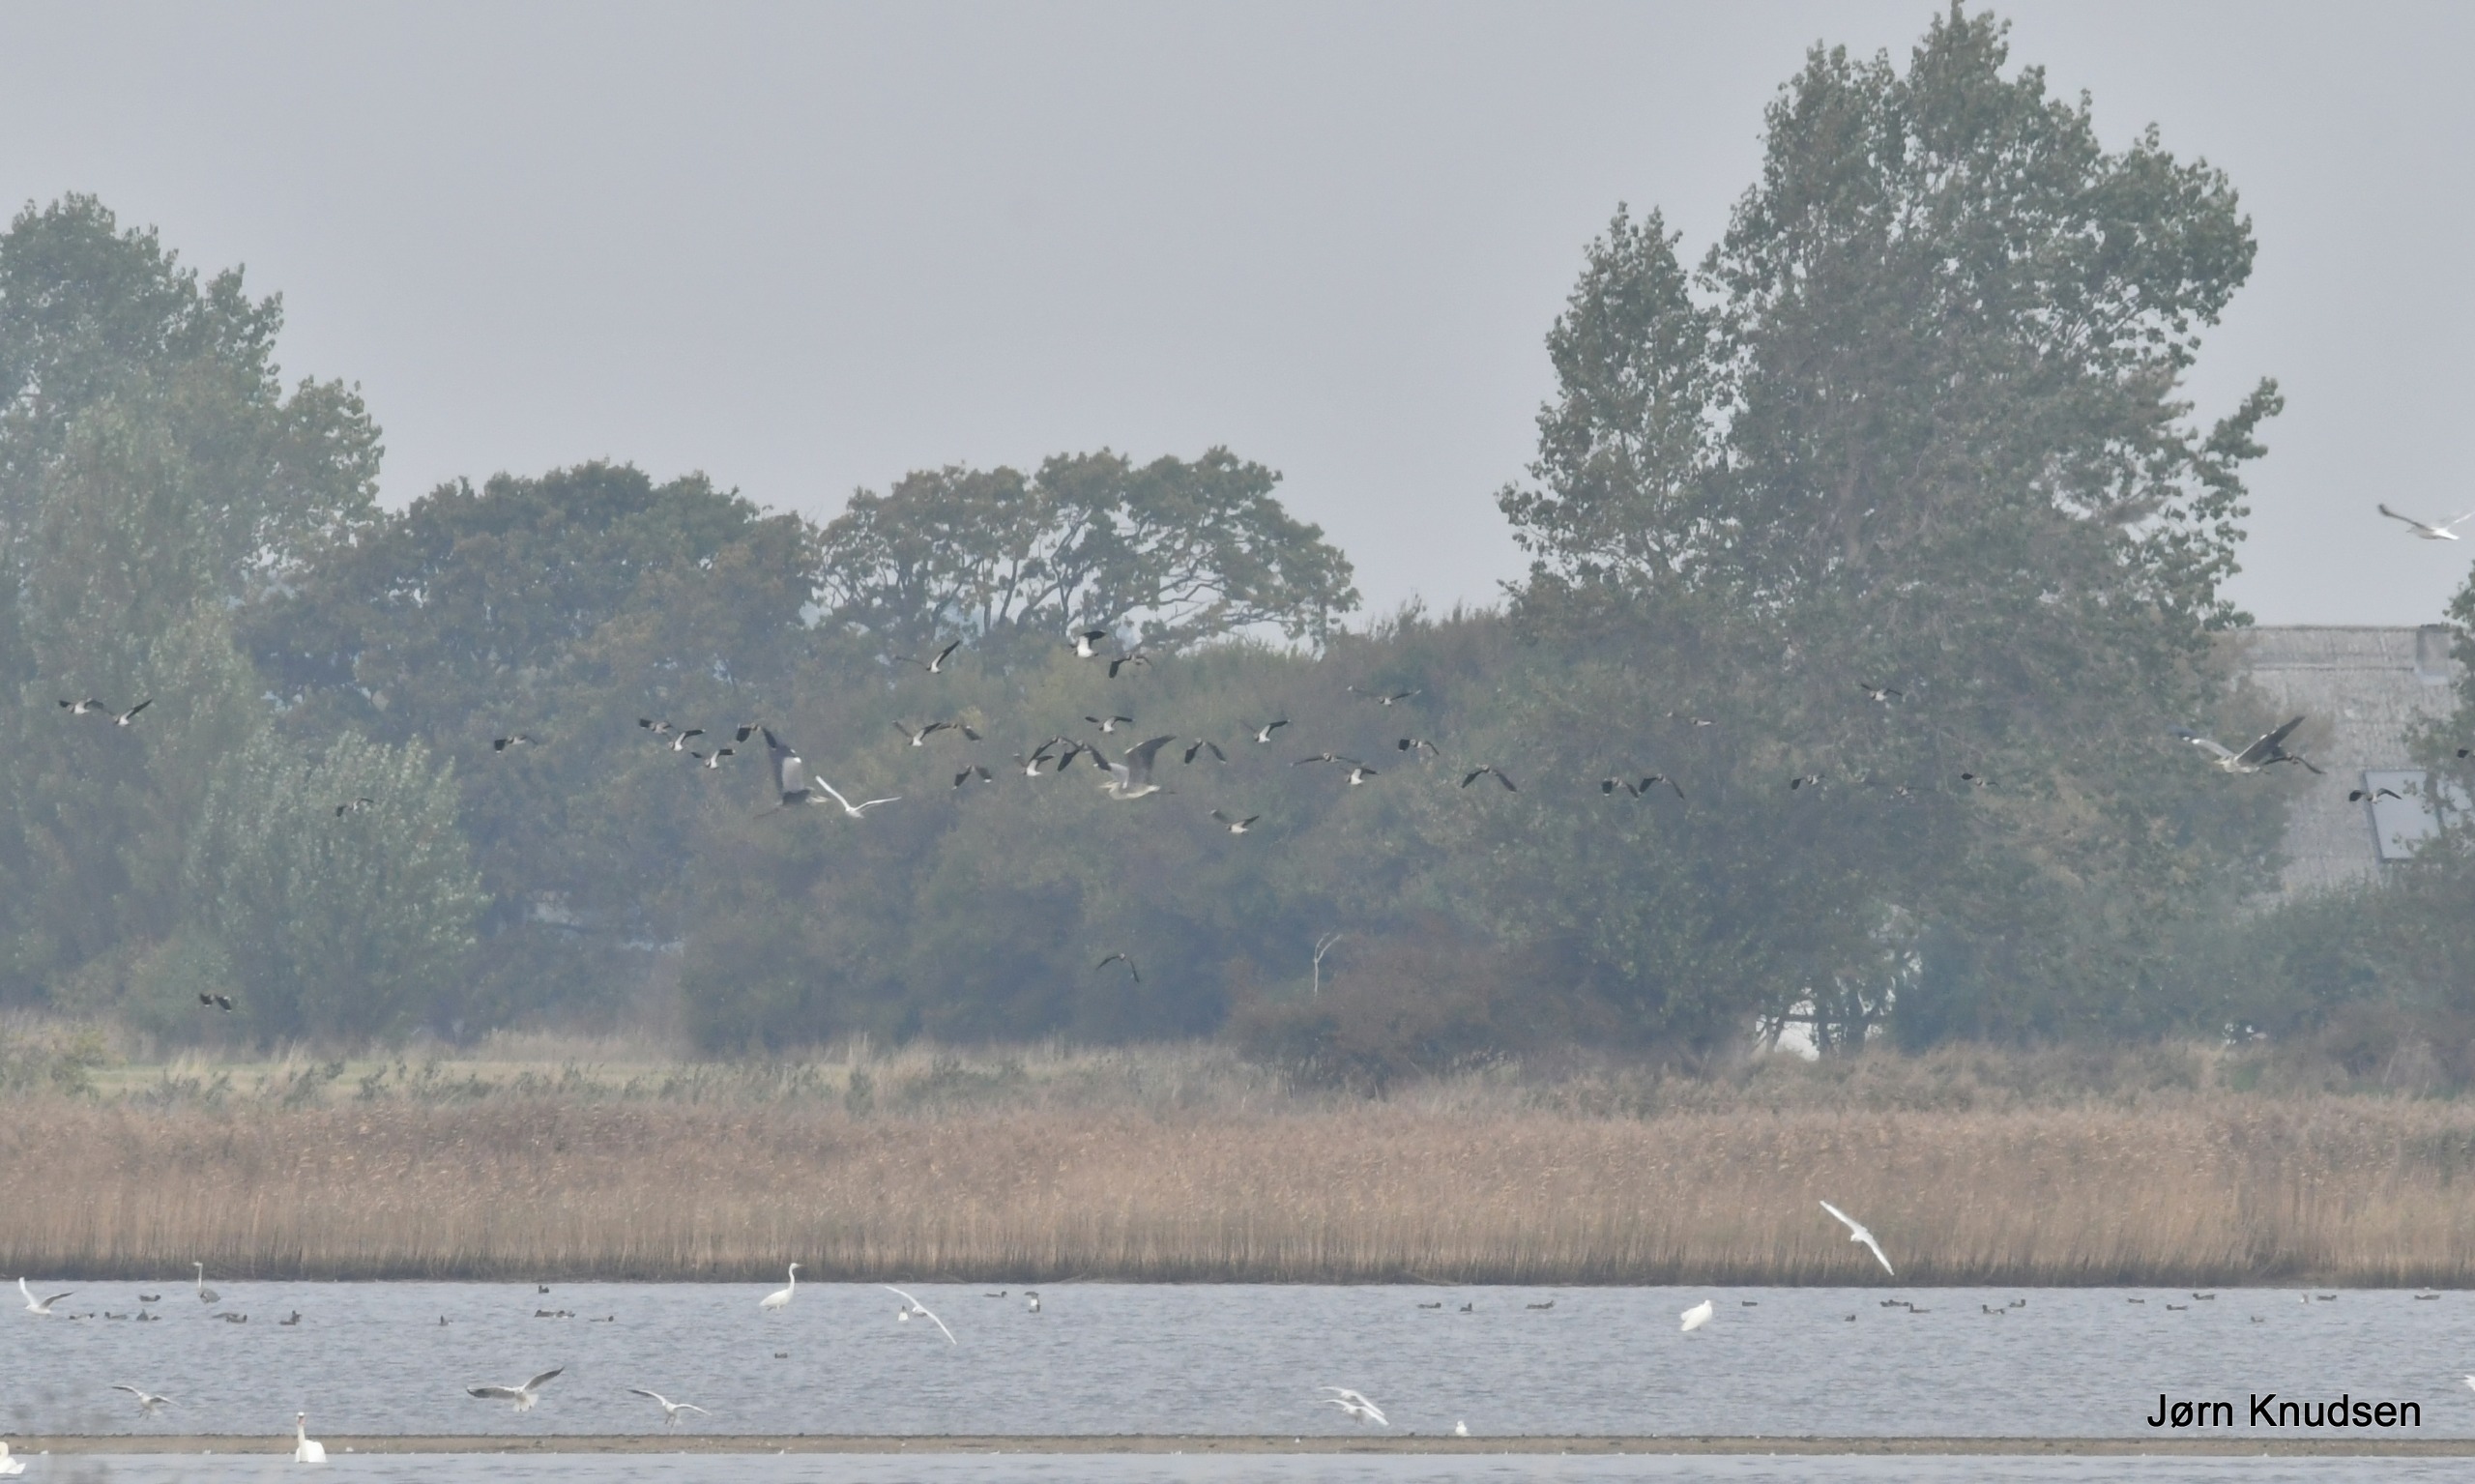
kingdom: Animalia
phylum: Chordata
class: Aves
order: Charadriiformes
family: Charadriidae
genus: Vanellus
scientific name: Vanellus vanellus
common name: Vibe
